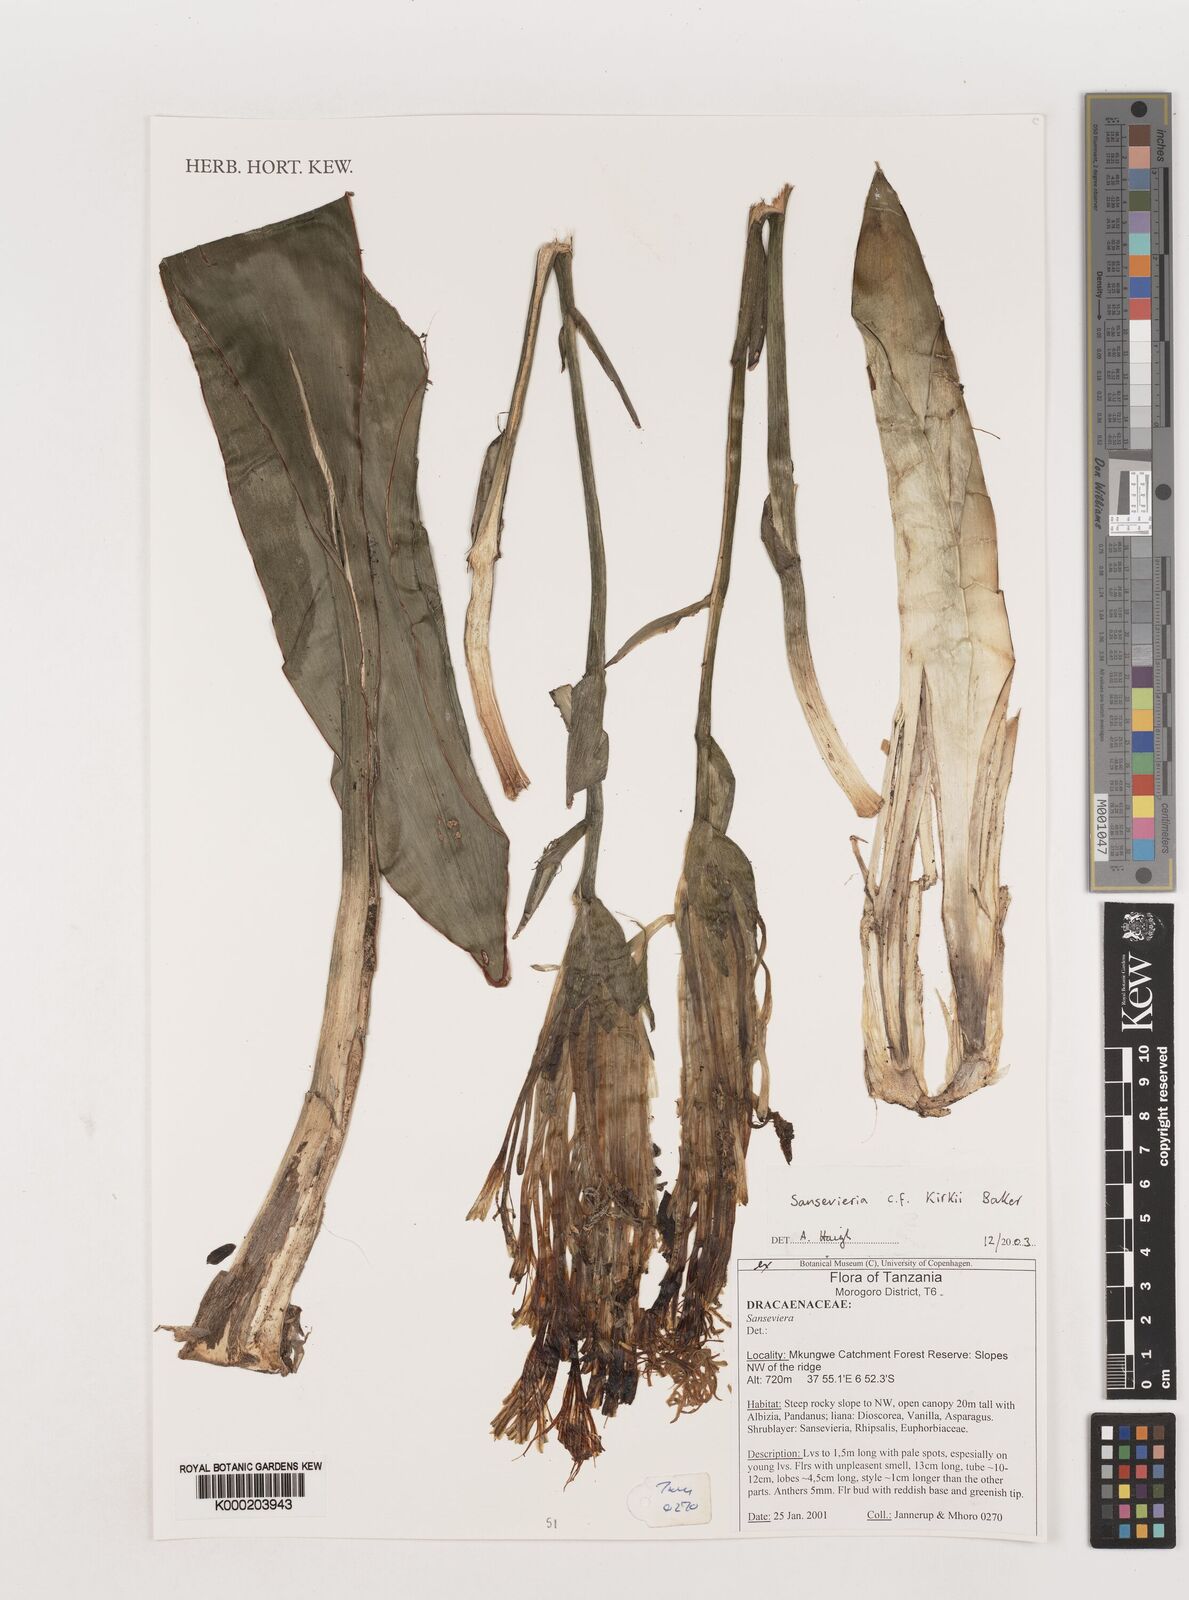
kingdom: Plantae
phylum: Tracheophyta
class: Liliopsida
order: Asparagales
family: Asparagaceae
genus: Dracaena
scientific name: Dracaena pethera
